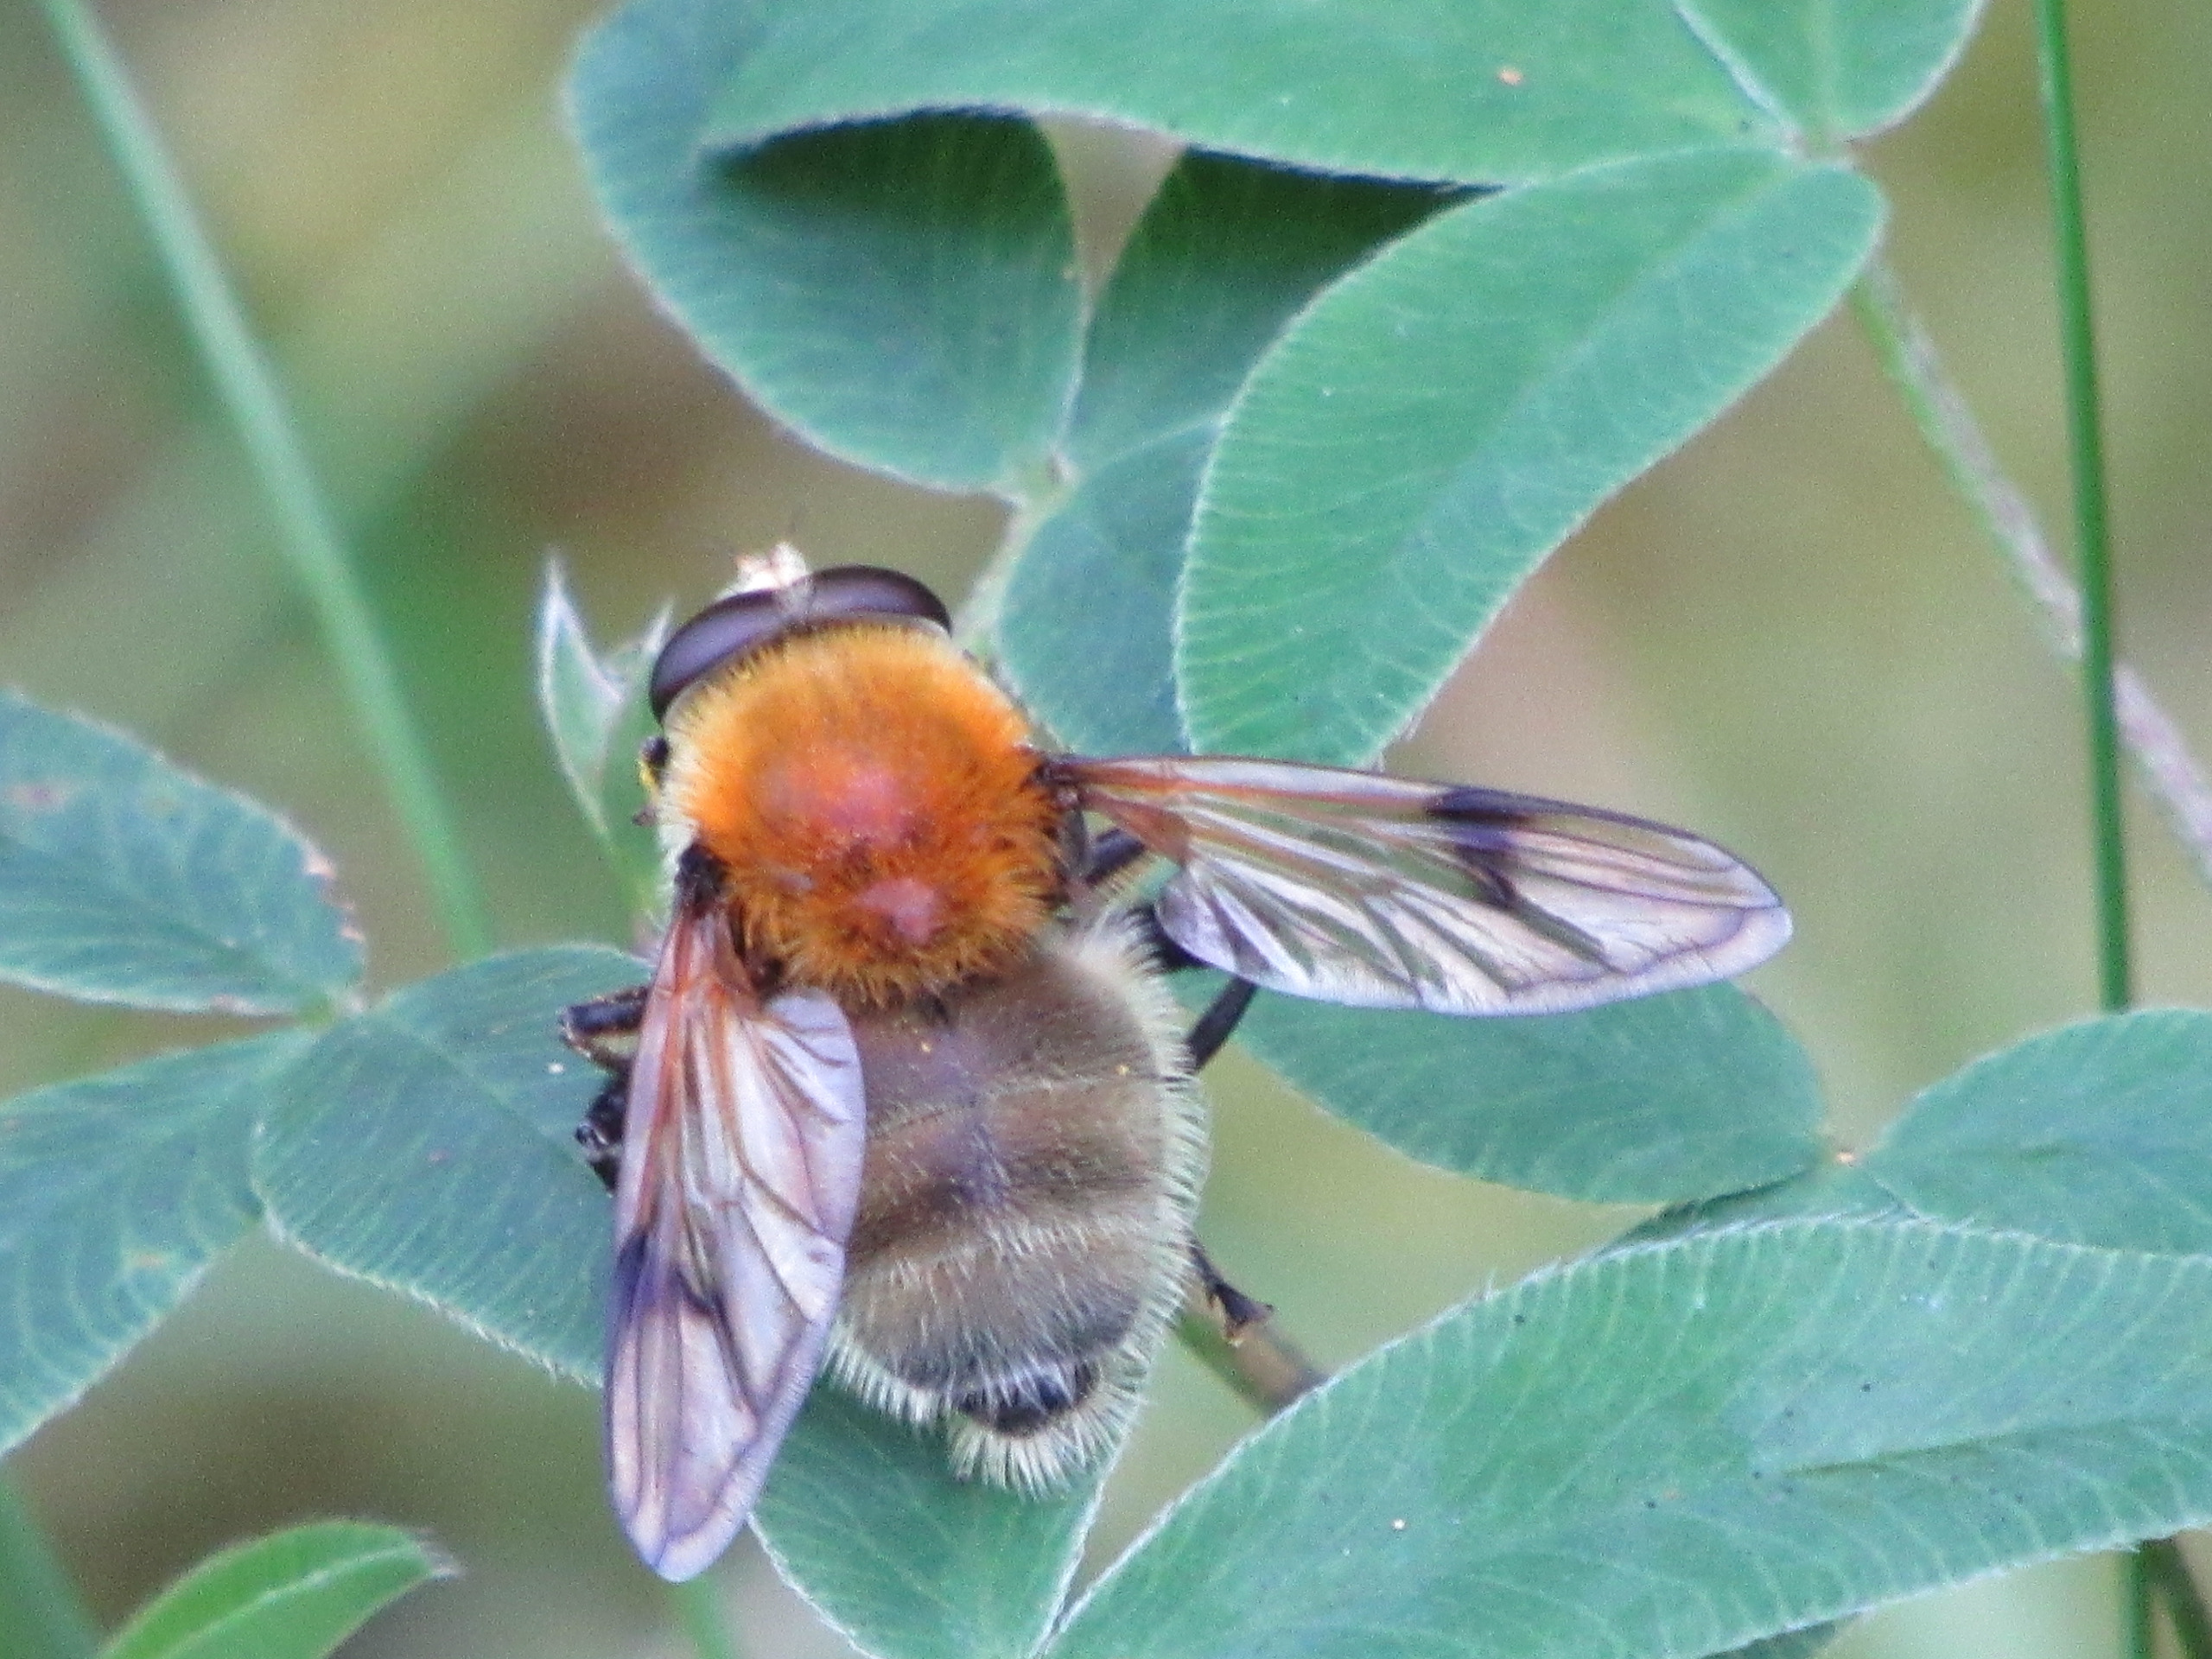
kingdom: Animalia
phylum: Arthropoda
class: Insecta
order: Diptera
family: Syrphidae
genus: Sericomyia
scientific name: Sericomyia superbiens
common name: Brun bjørnesvirreflue
